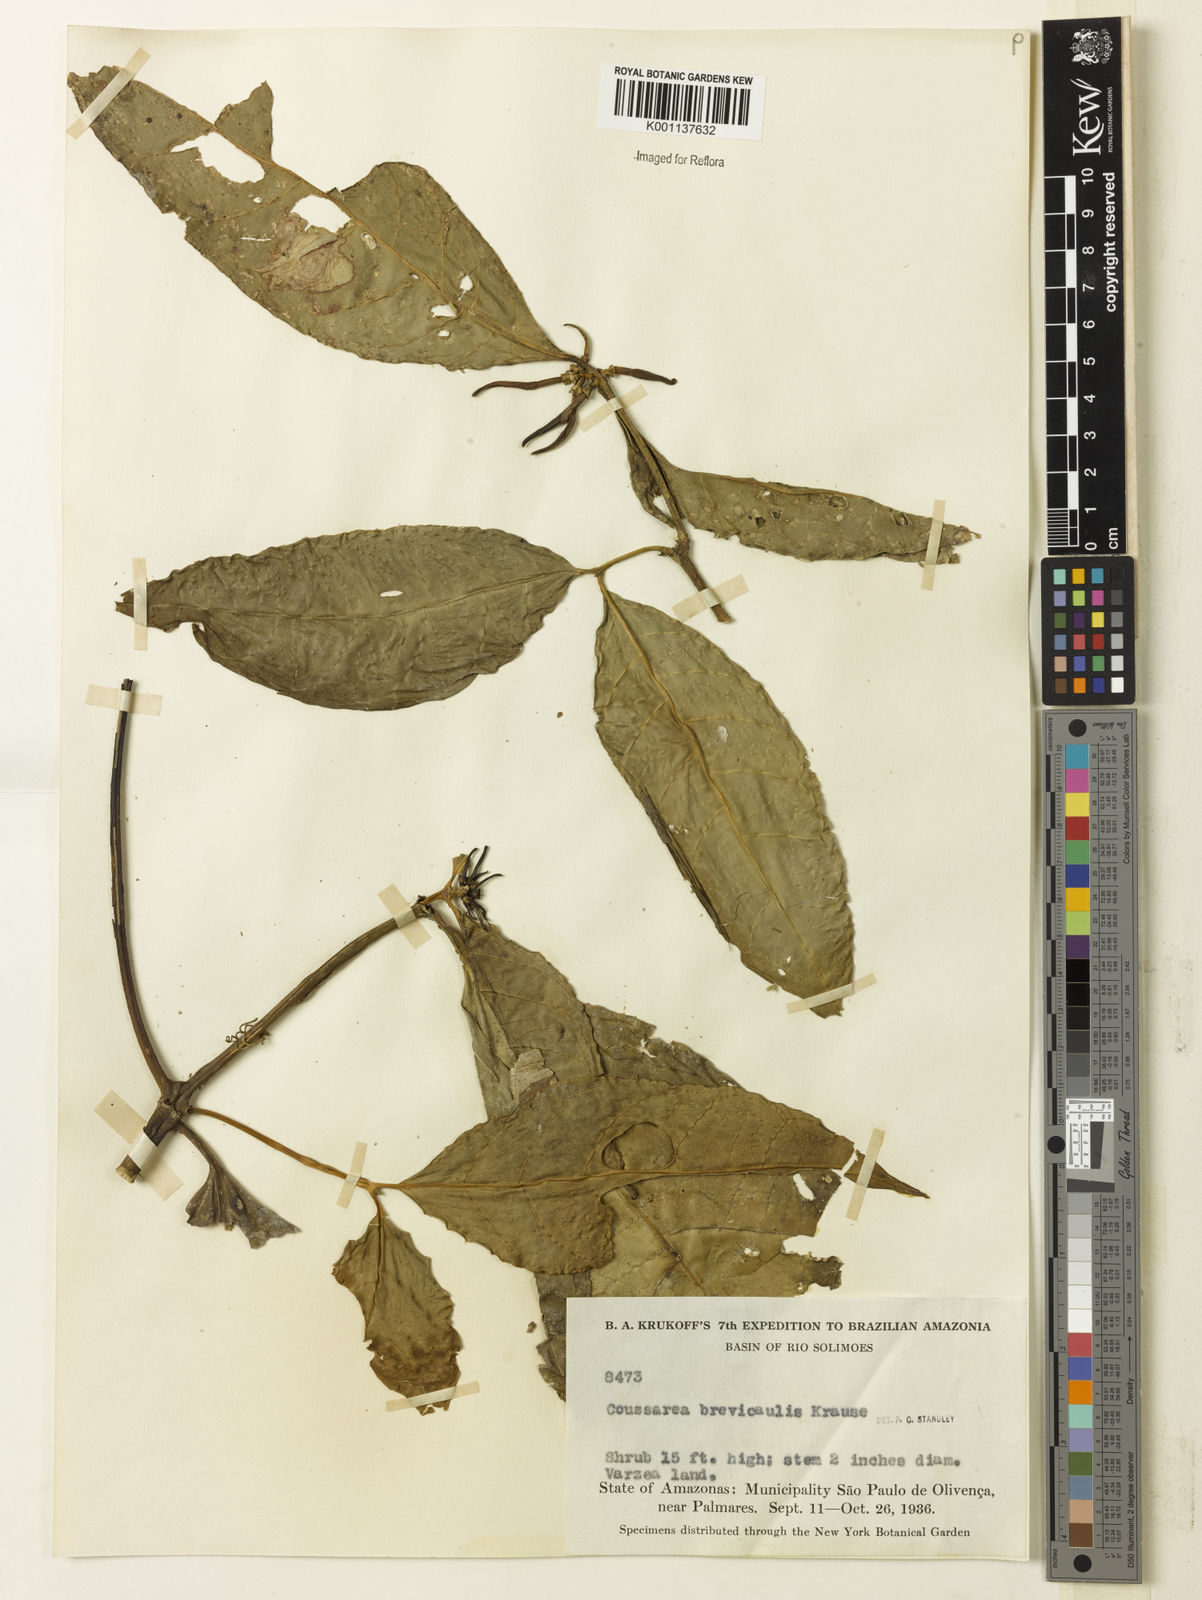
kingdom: Plantae
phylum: Tracheophyta
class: Magnoliopsida
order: Gentianales
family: Rubiaceae
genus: Coussarea
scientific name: Coussarea brevicaulis
